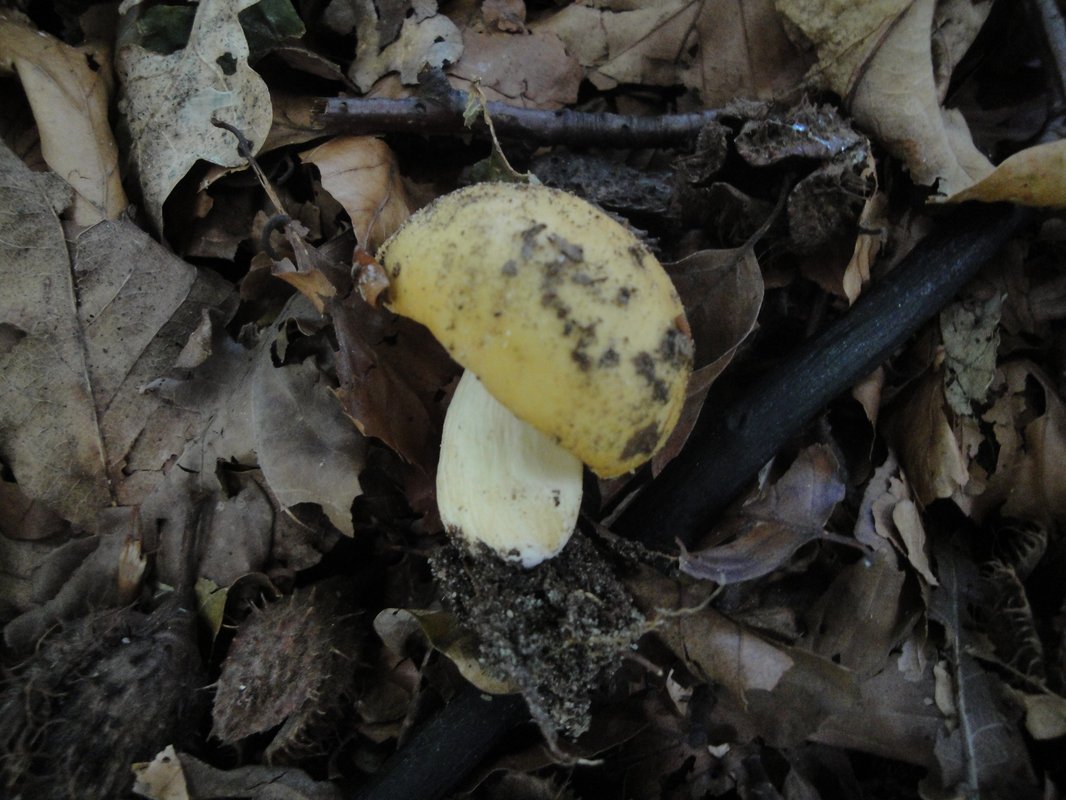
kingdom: Fungi
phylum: Basidiomycota
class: Agaricomycetes
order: Russulales
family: Russulaceae
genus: Russula
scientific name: Russula ochroleuca
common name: okkergul skørhat
